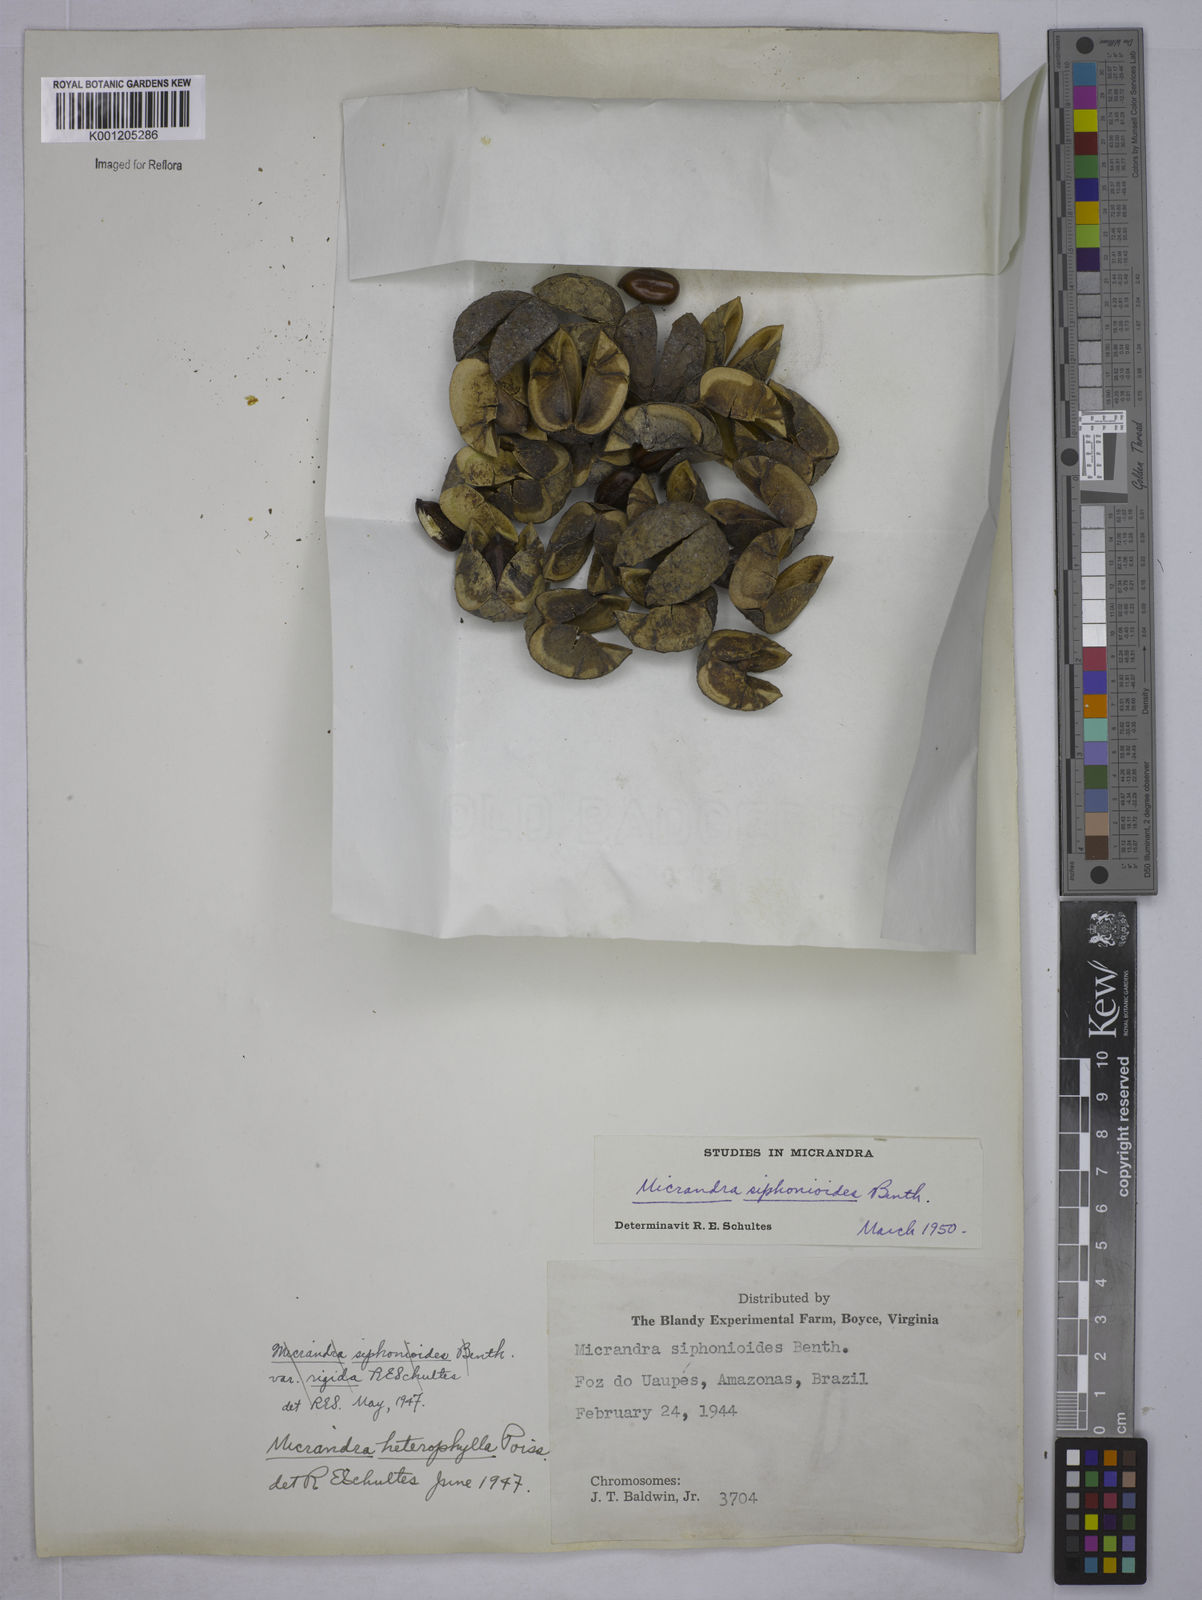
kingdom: Plantae
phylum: Tracheophyta
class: Magnoliopsida
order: Malpighiales
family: Euphorbiaceae
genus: Micrandra
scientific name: Micrandra siphonioides
